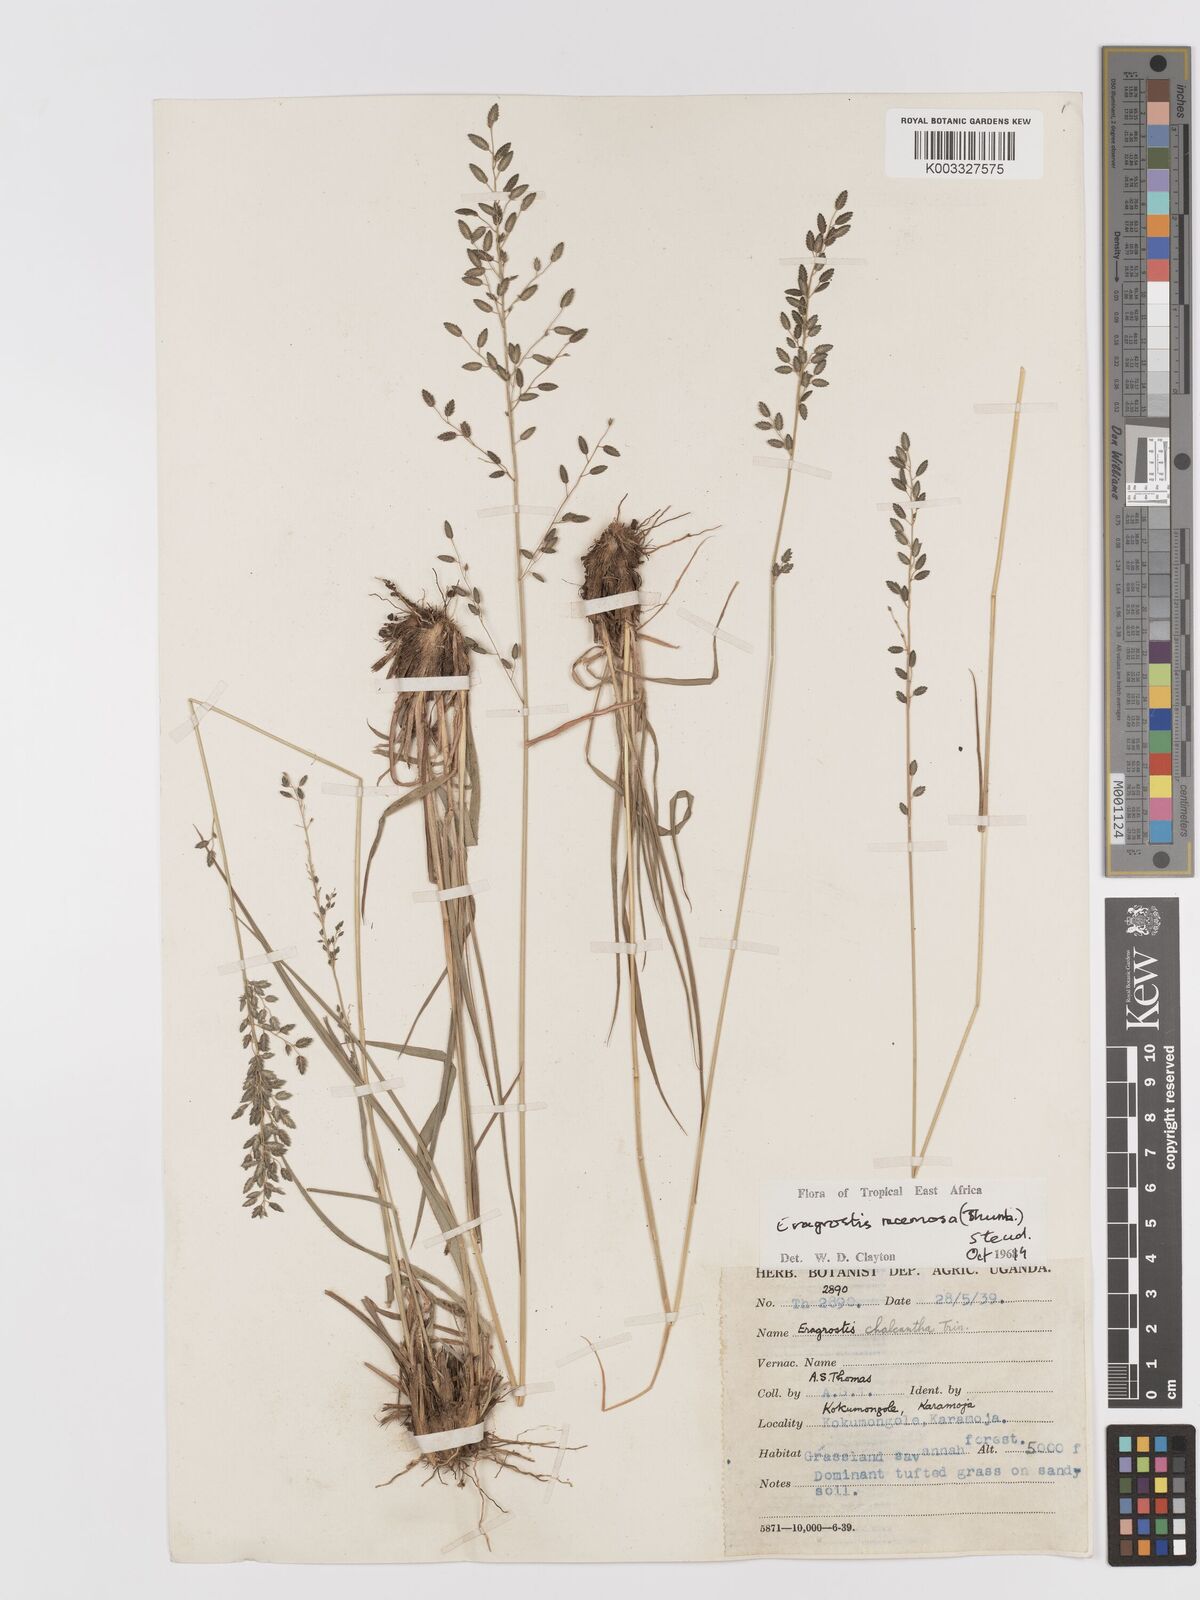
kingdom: Plantae
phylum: Tracheophyta
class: Liliopsida
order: Poales
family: Poaceae
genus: Eragrostis
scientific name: Eragrostis racemosa
